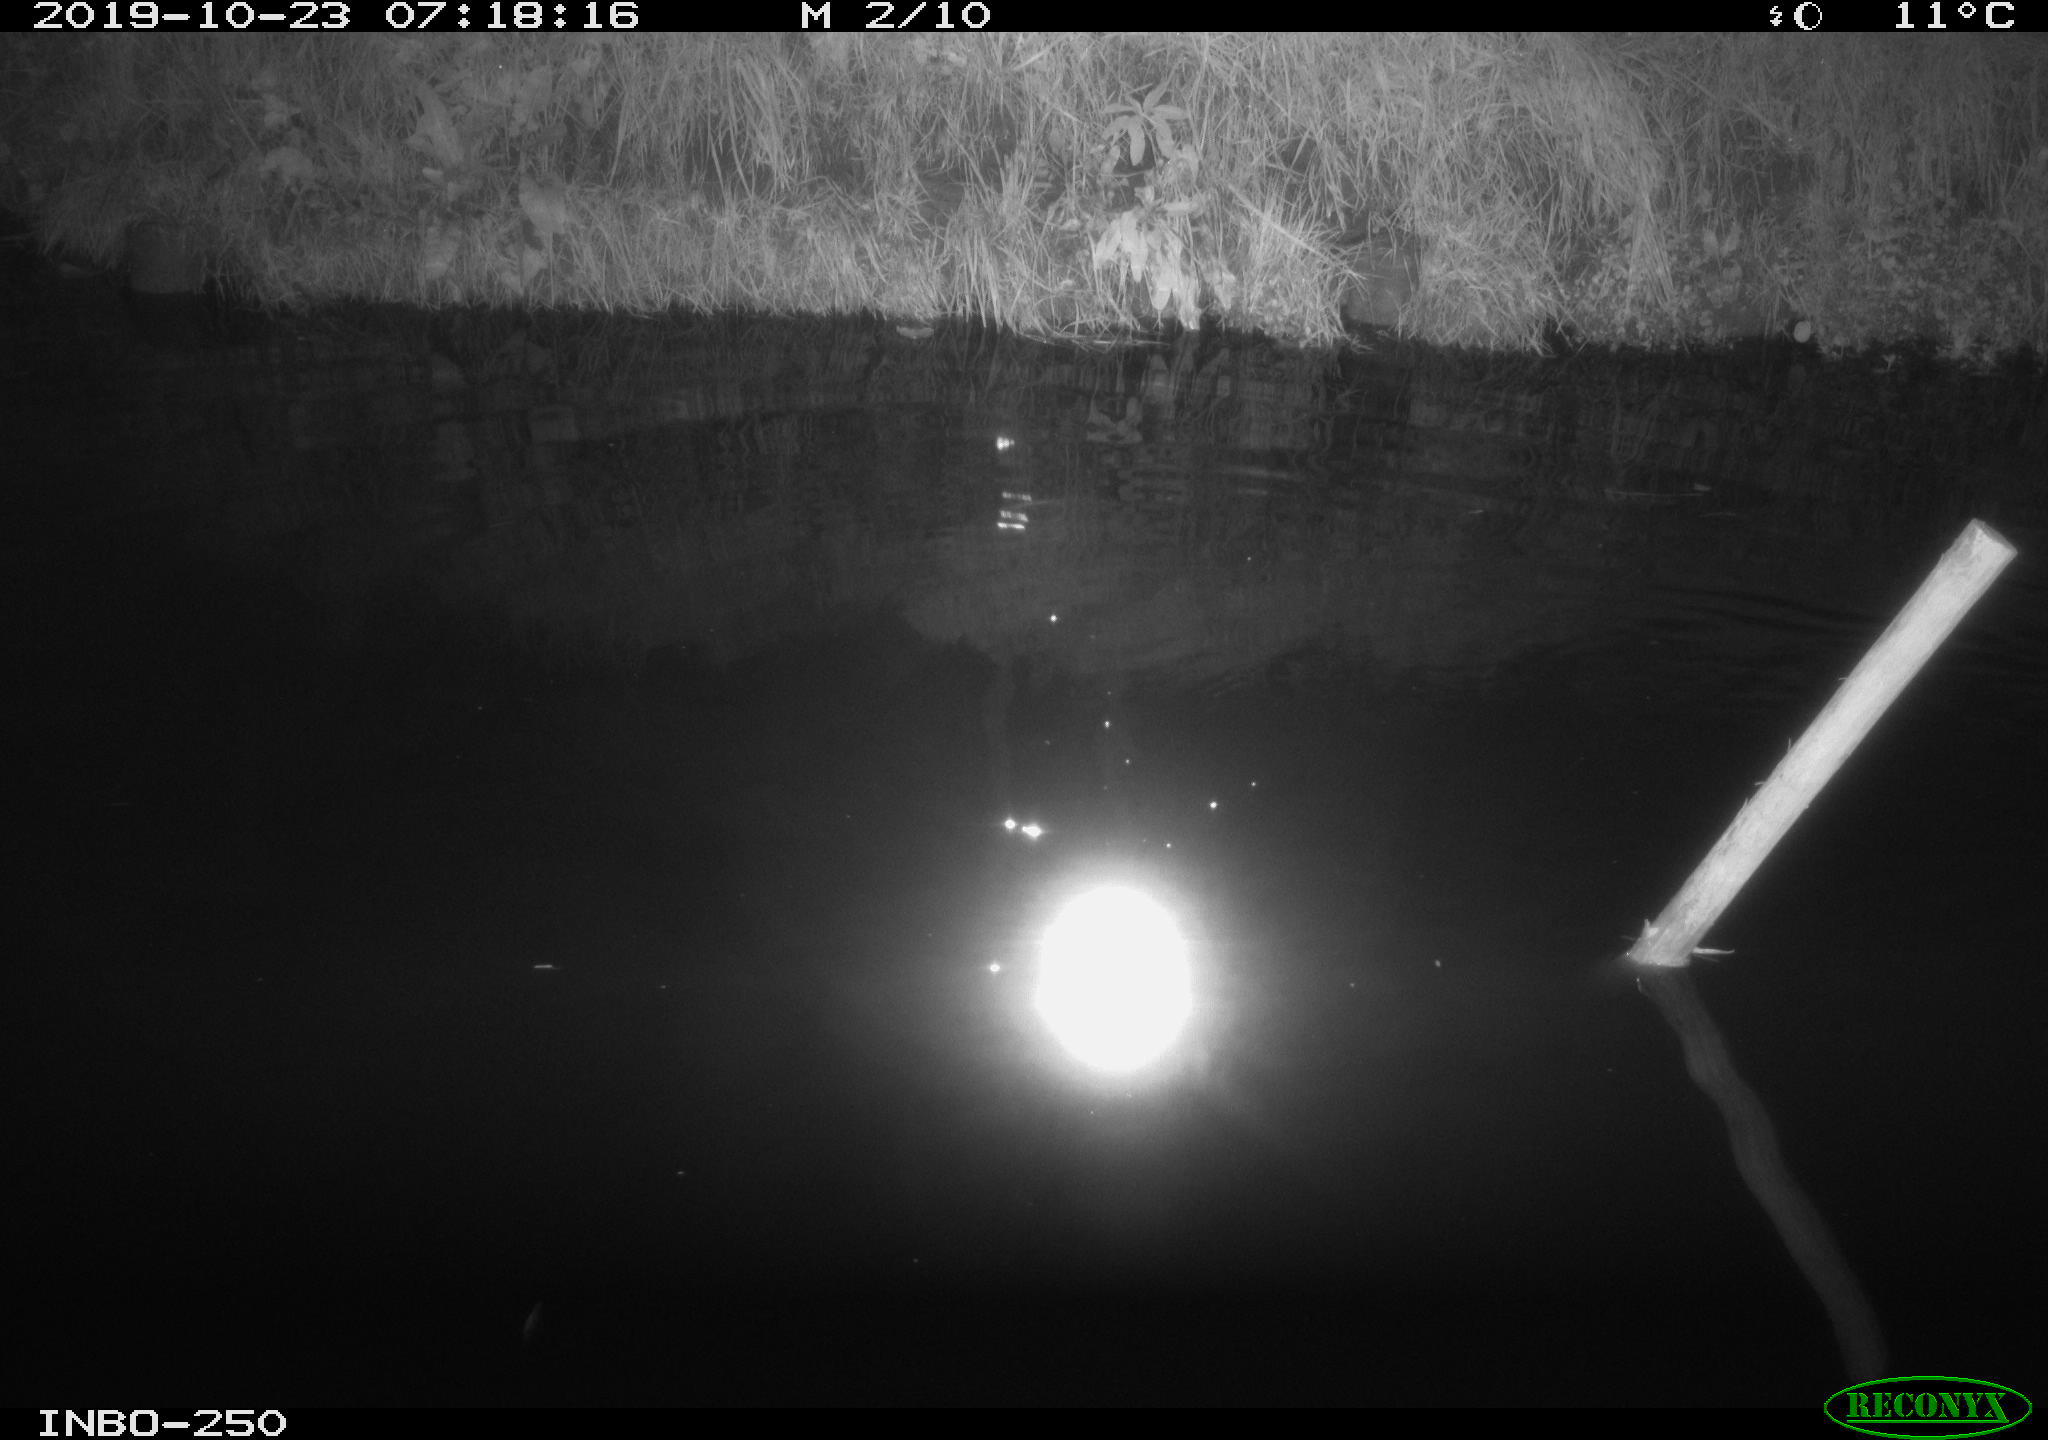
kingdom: Animalia
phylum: Chordata
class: Aves
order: Anseriformes
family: Anatidae
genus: Anas
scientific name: Anas platyrhynchos
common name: Mallard
